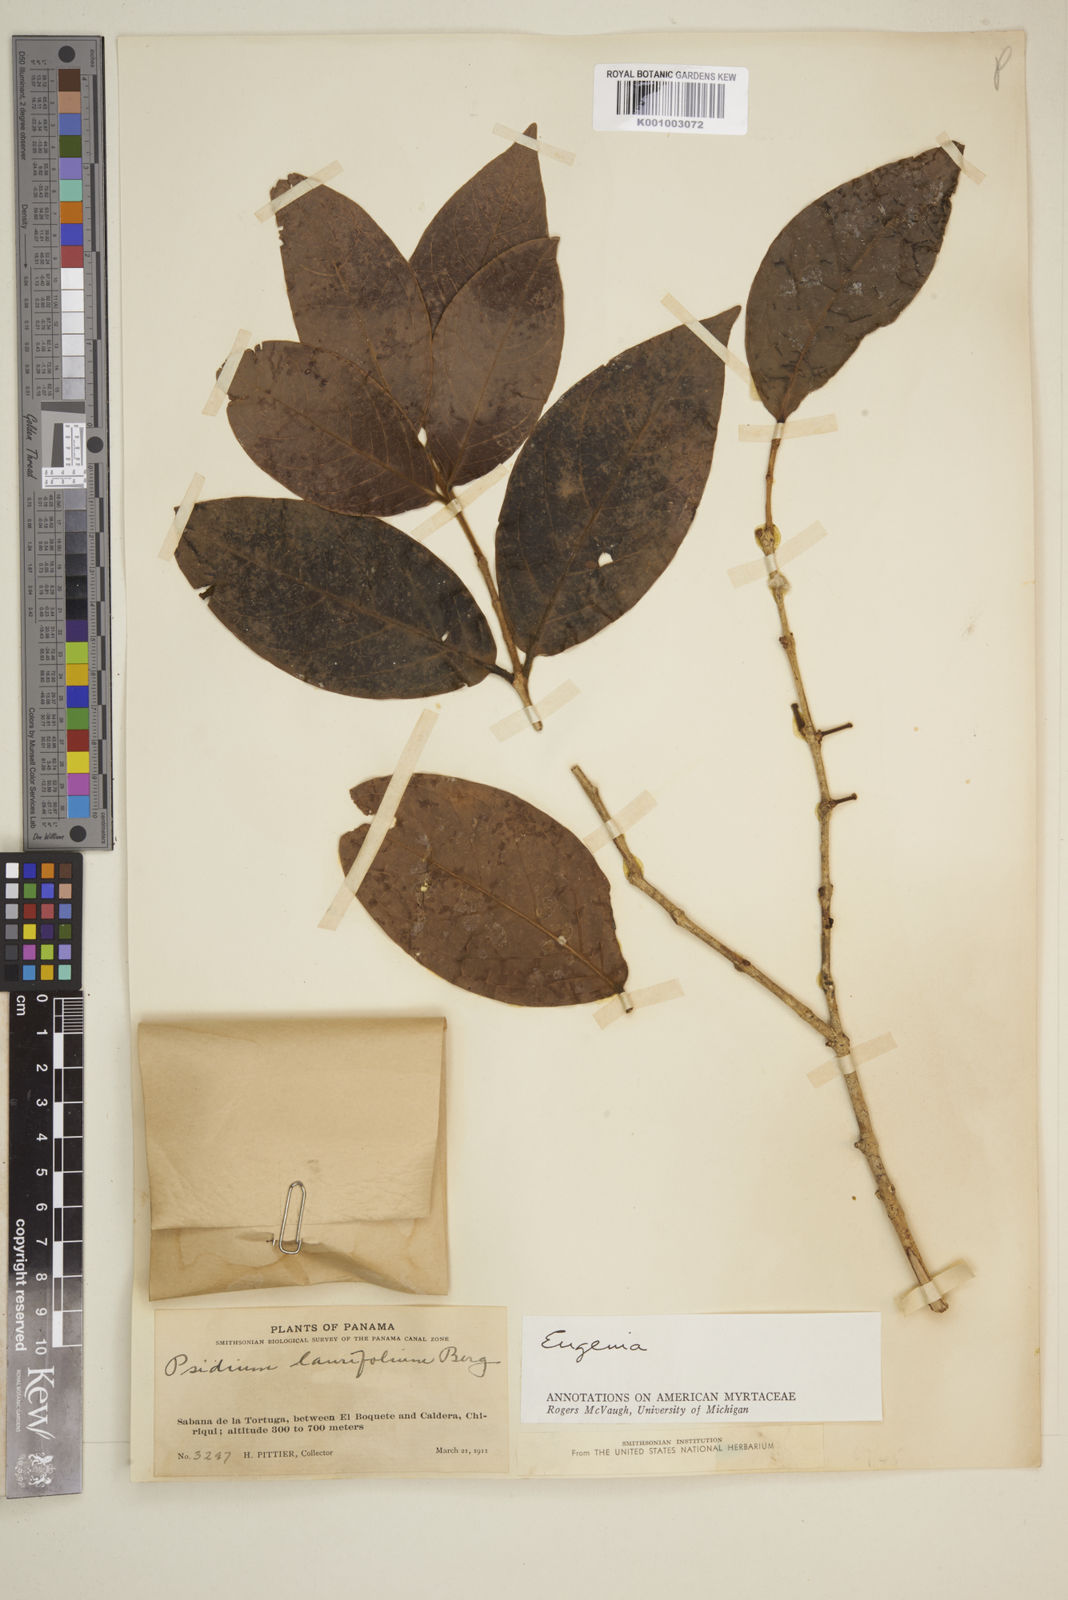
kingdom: Plantae
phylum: Tracheophyta
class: Magnoliopsida
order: Myrtales
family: Myrtaceae
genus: Eugenia
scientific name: Eugenia
